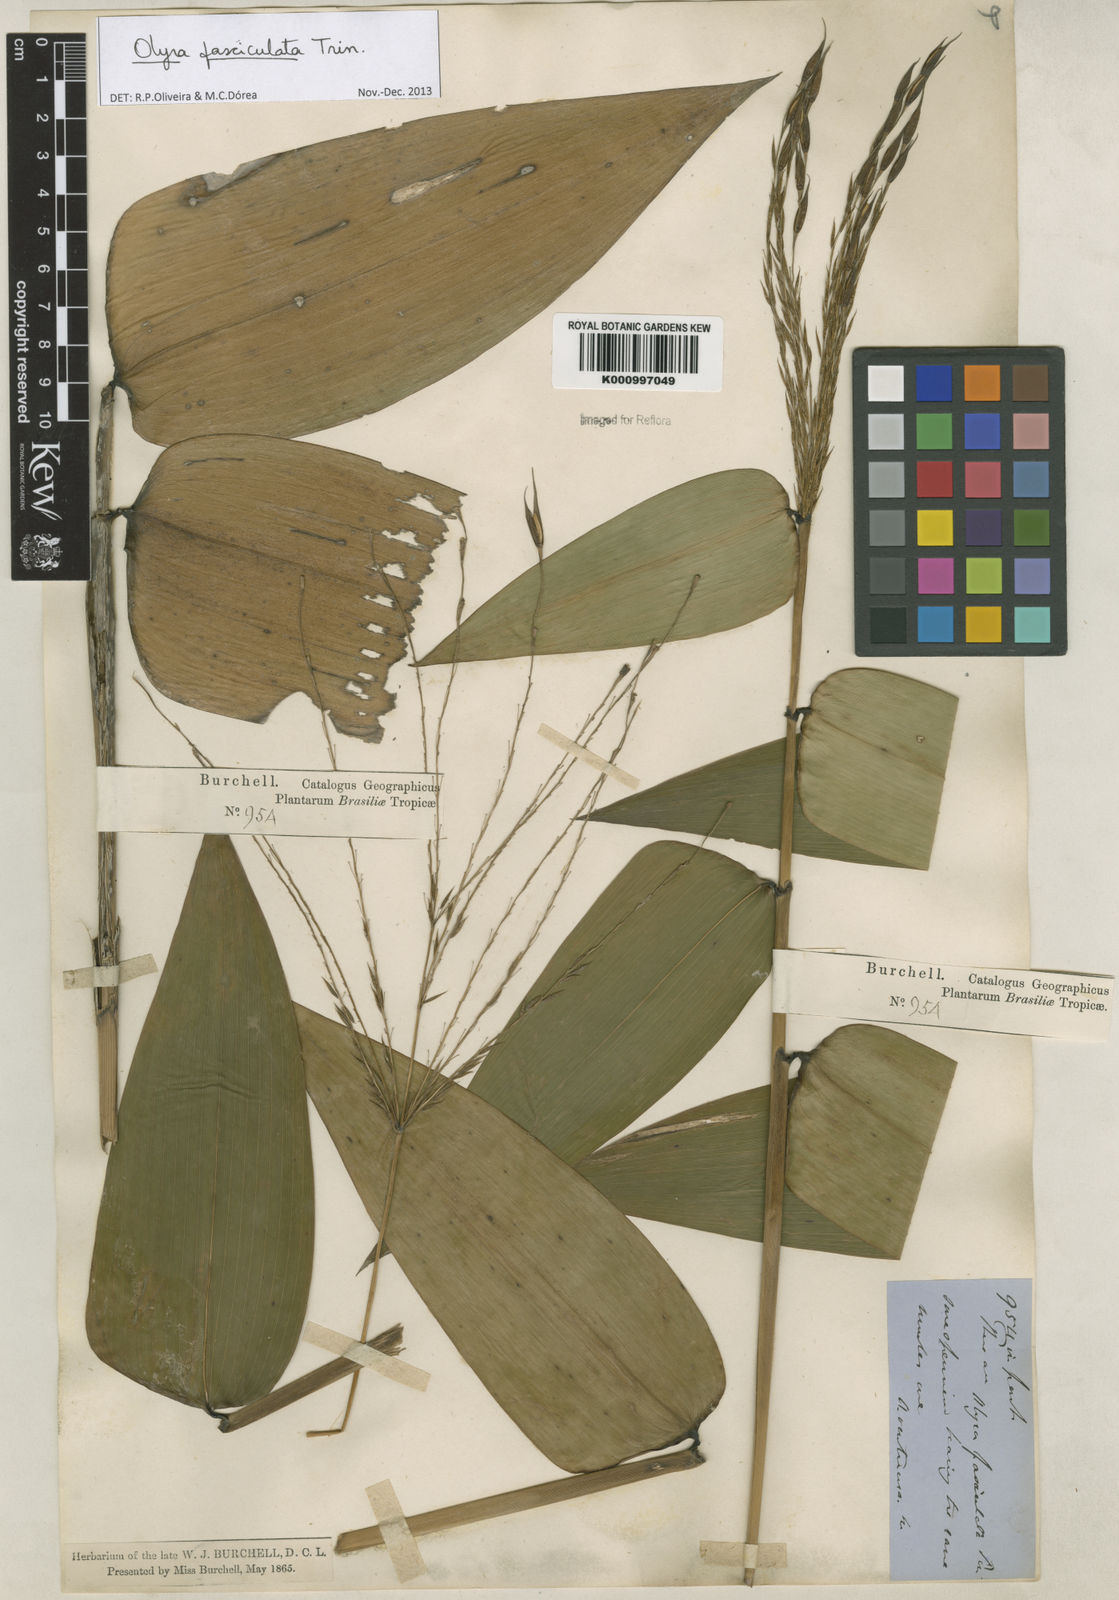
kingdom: Plantae
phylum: Tracheophyta
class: Liliopsida
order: Poales
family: Poaceae
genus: Olyra
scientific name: Olyra fasciculata
